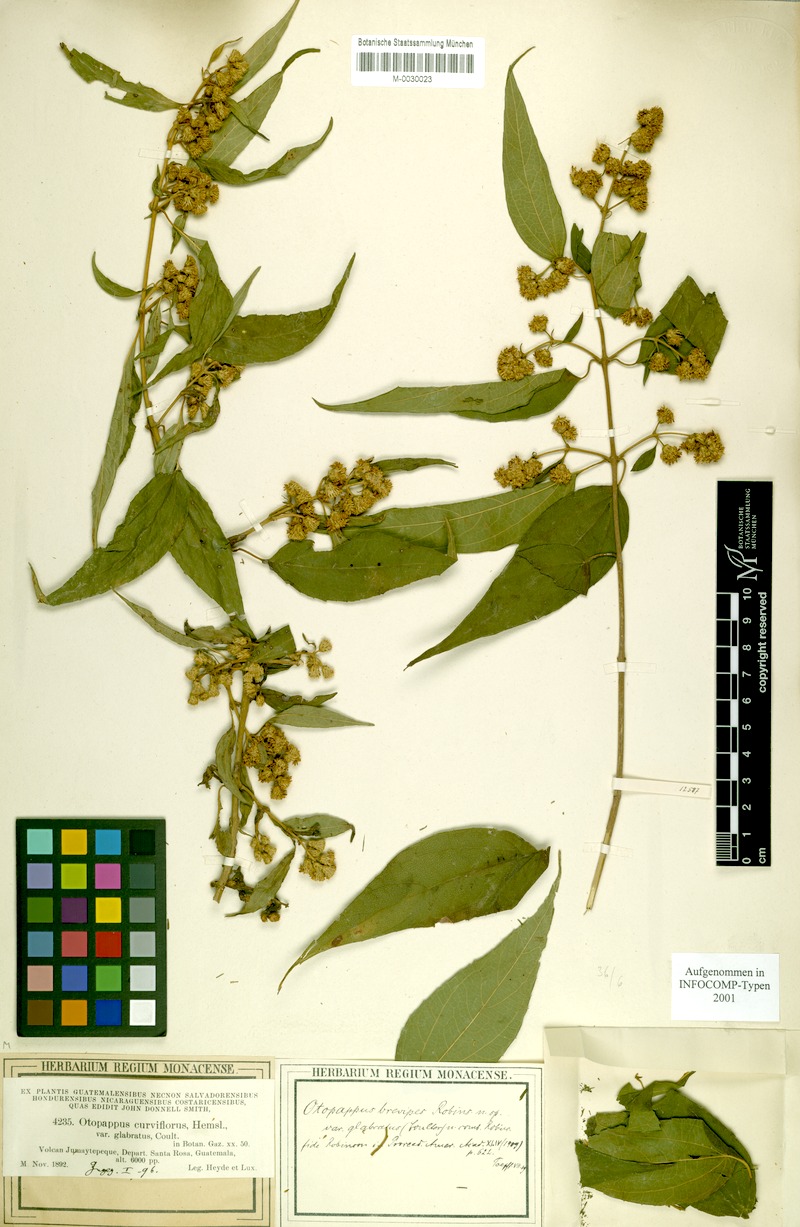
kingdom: Plantae
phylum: Tracheophyta
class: Magnoliopsida
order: Asterales
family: Asteraceae
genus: Otopappus
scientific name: Otopappus brevipes
